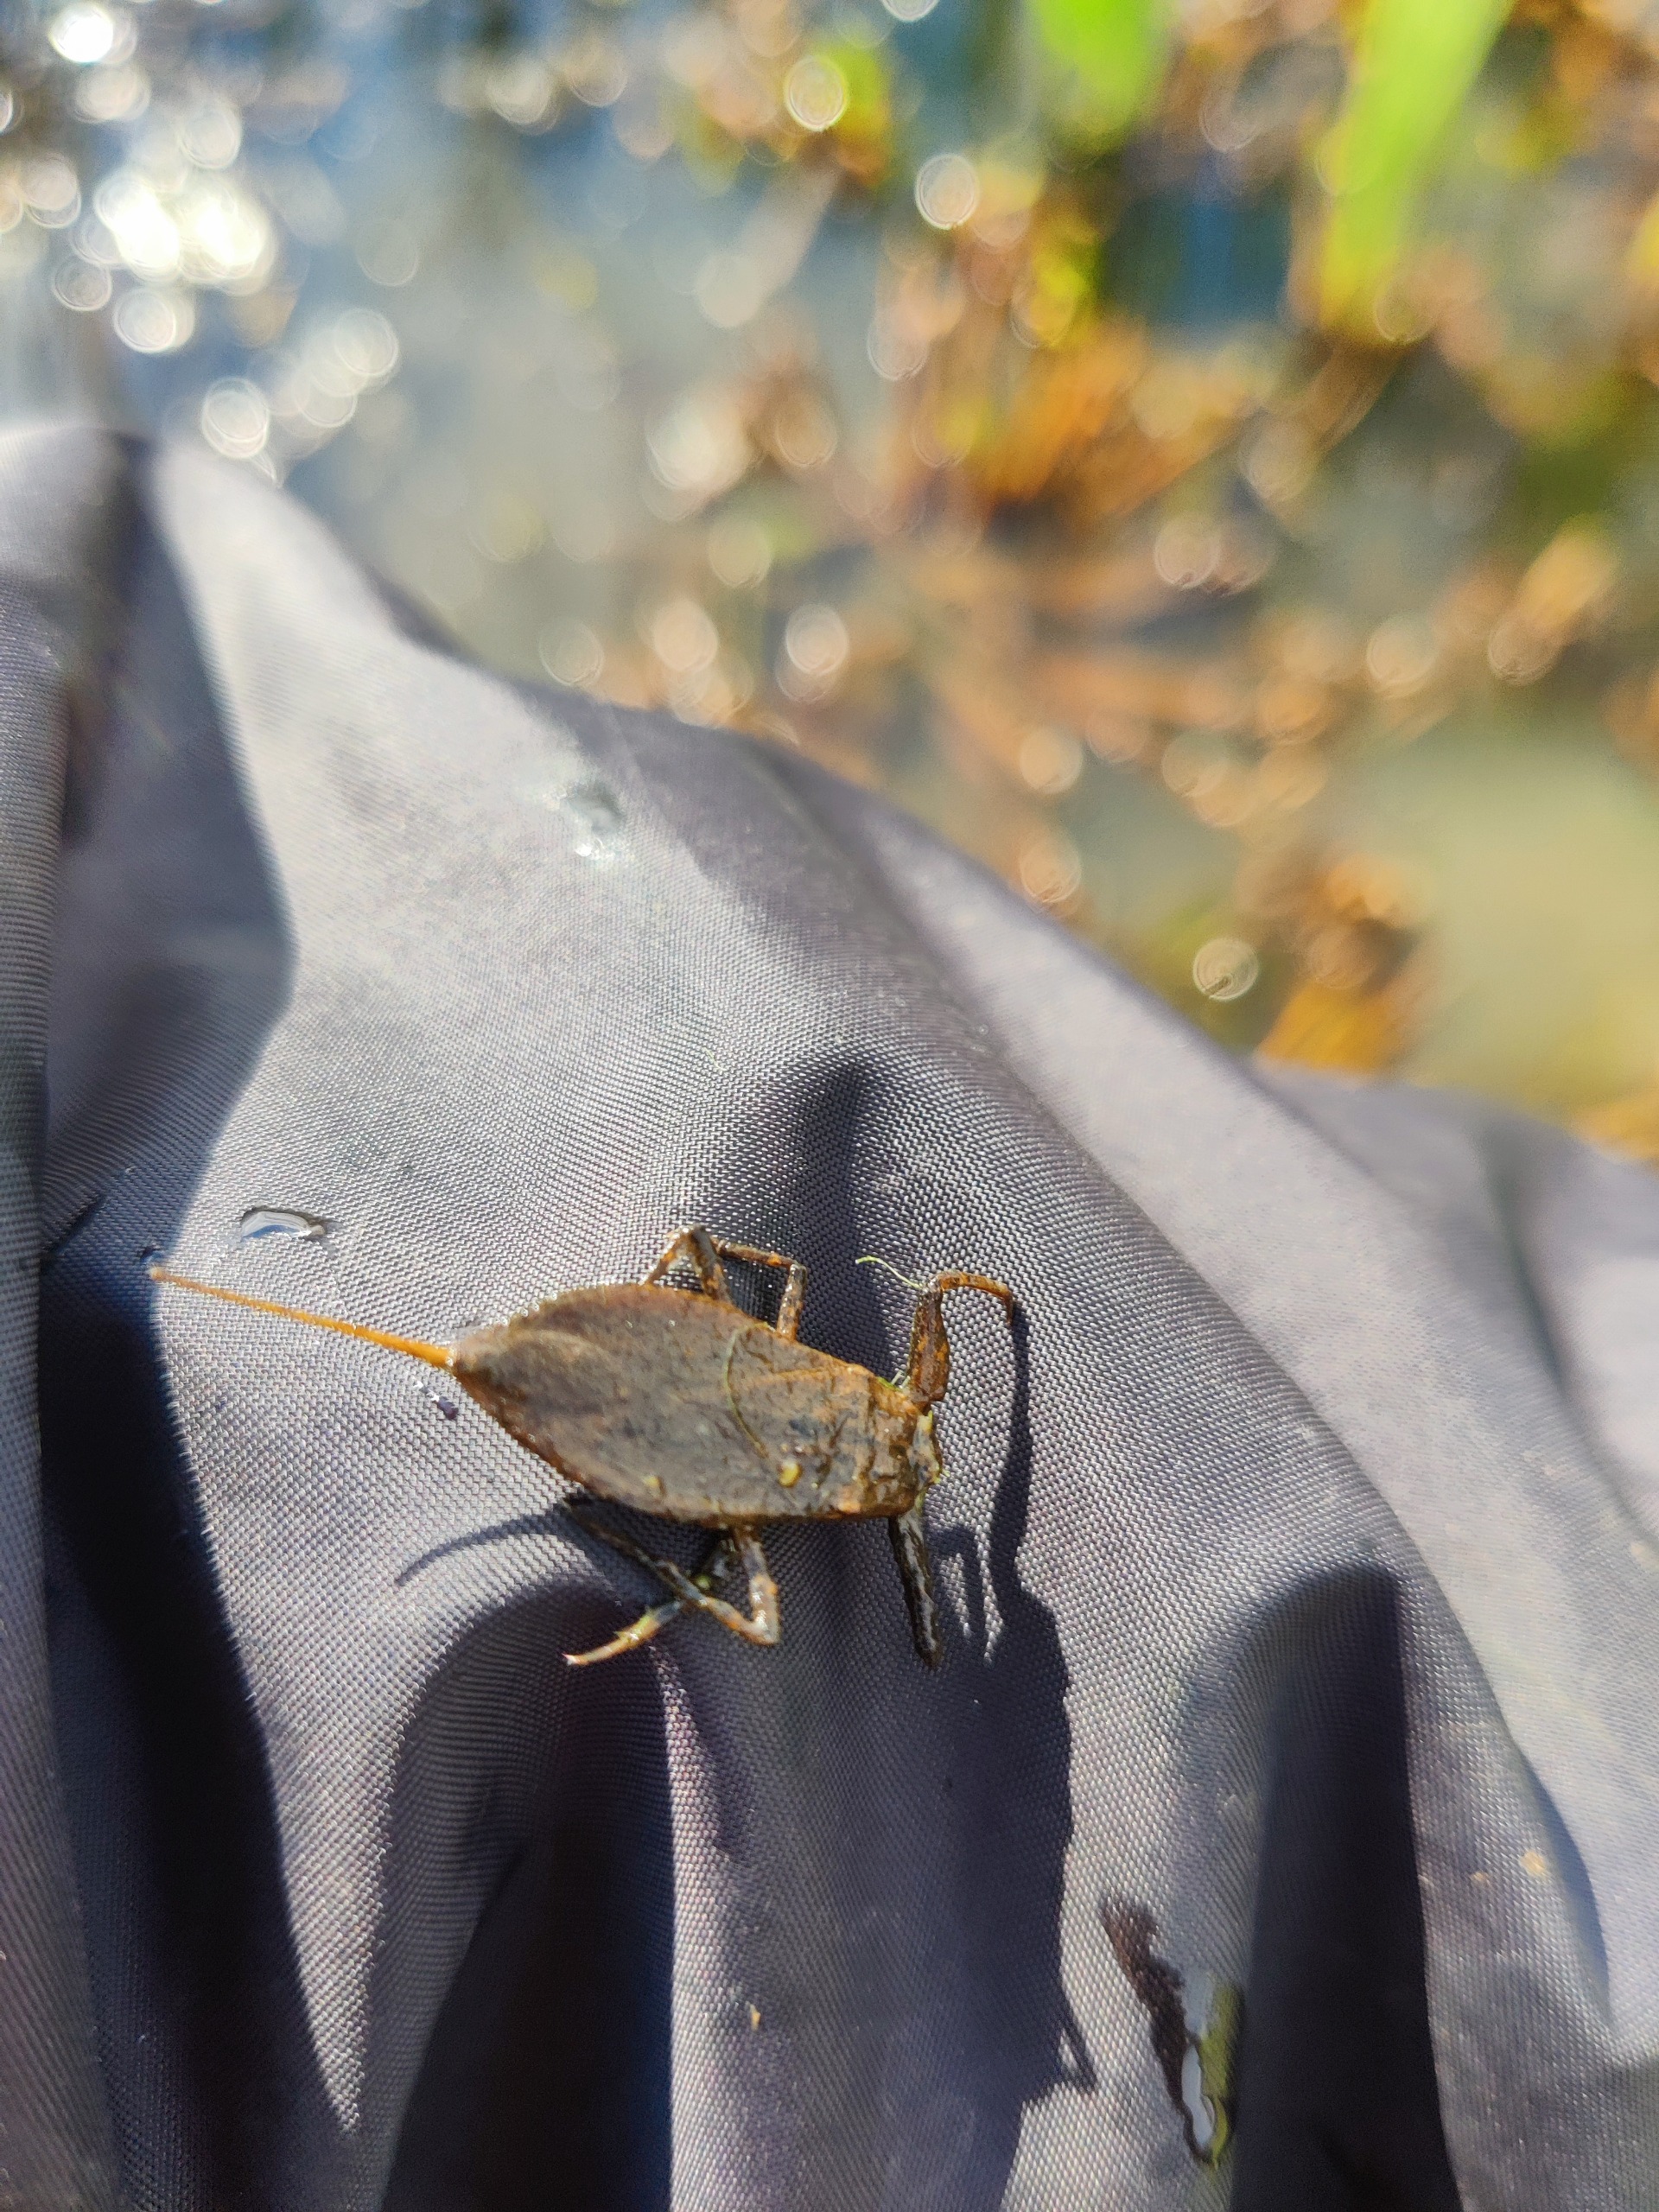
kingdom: Animalia
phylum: Arthropoda
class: Insecta
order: Hemiptera
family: Nepidae
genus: Nepa
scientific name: Nepa cinerea
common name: Skorpiontæge
